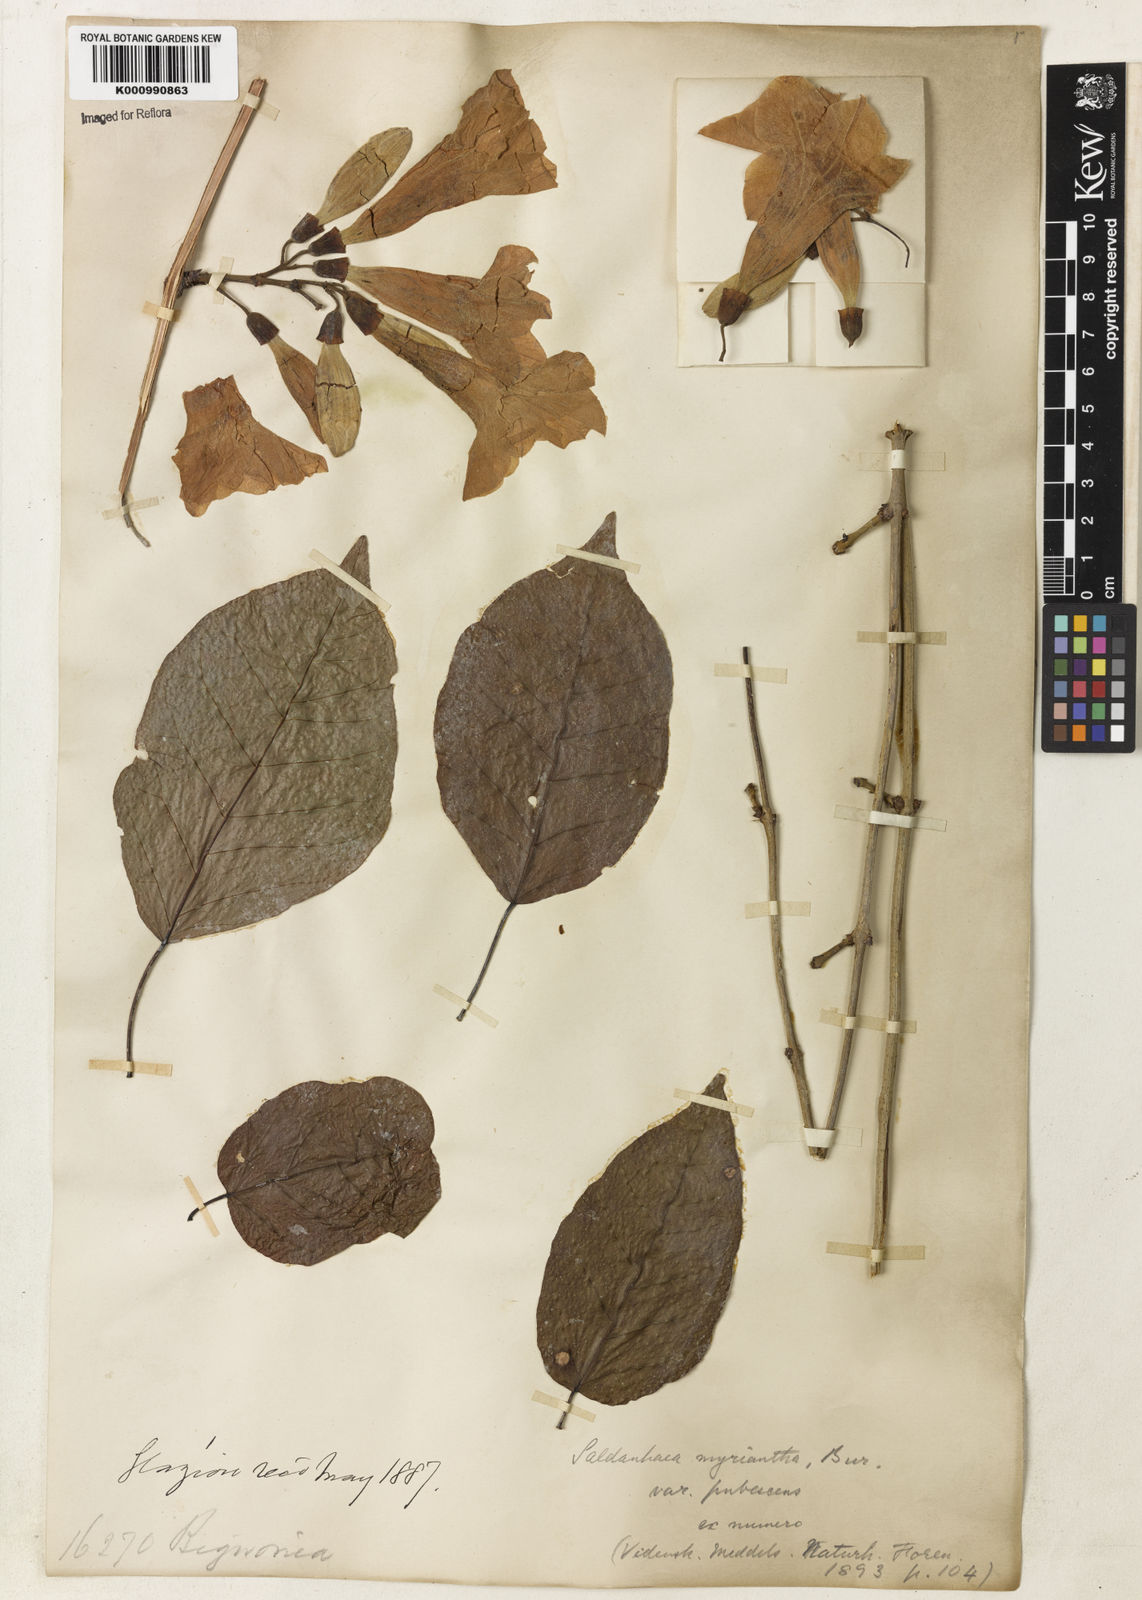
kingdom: Plantae
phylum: Tracheophyta
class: Magnoliopsida
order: Lamiales
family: Bignoniaceae
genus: Xylophragma
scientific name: Xylophragma myrianthum
